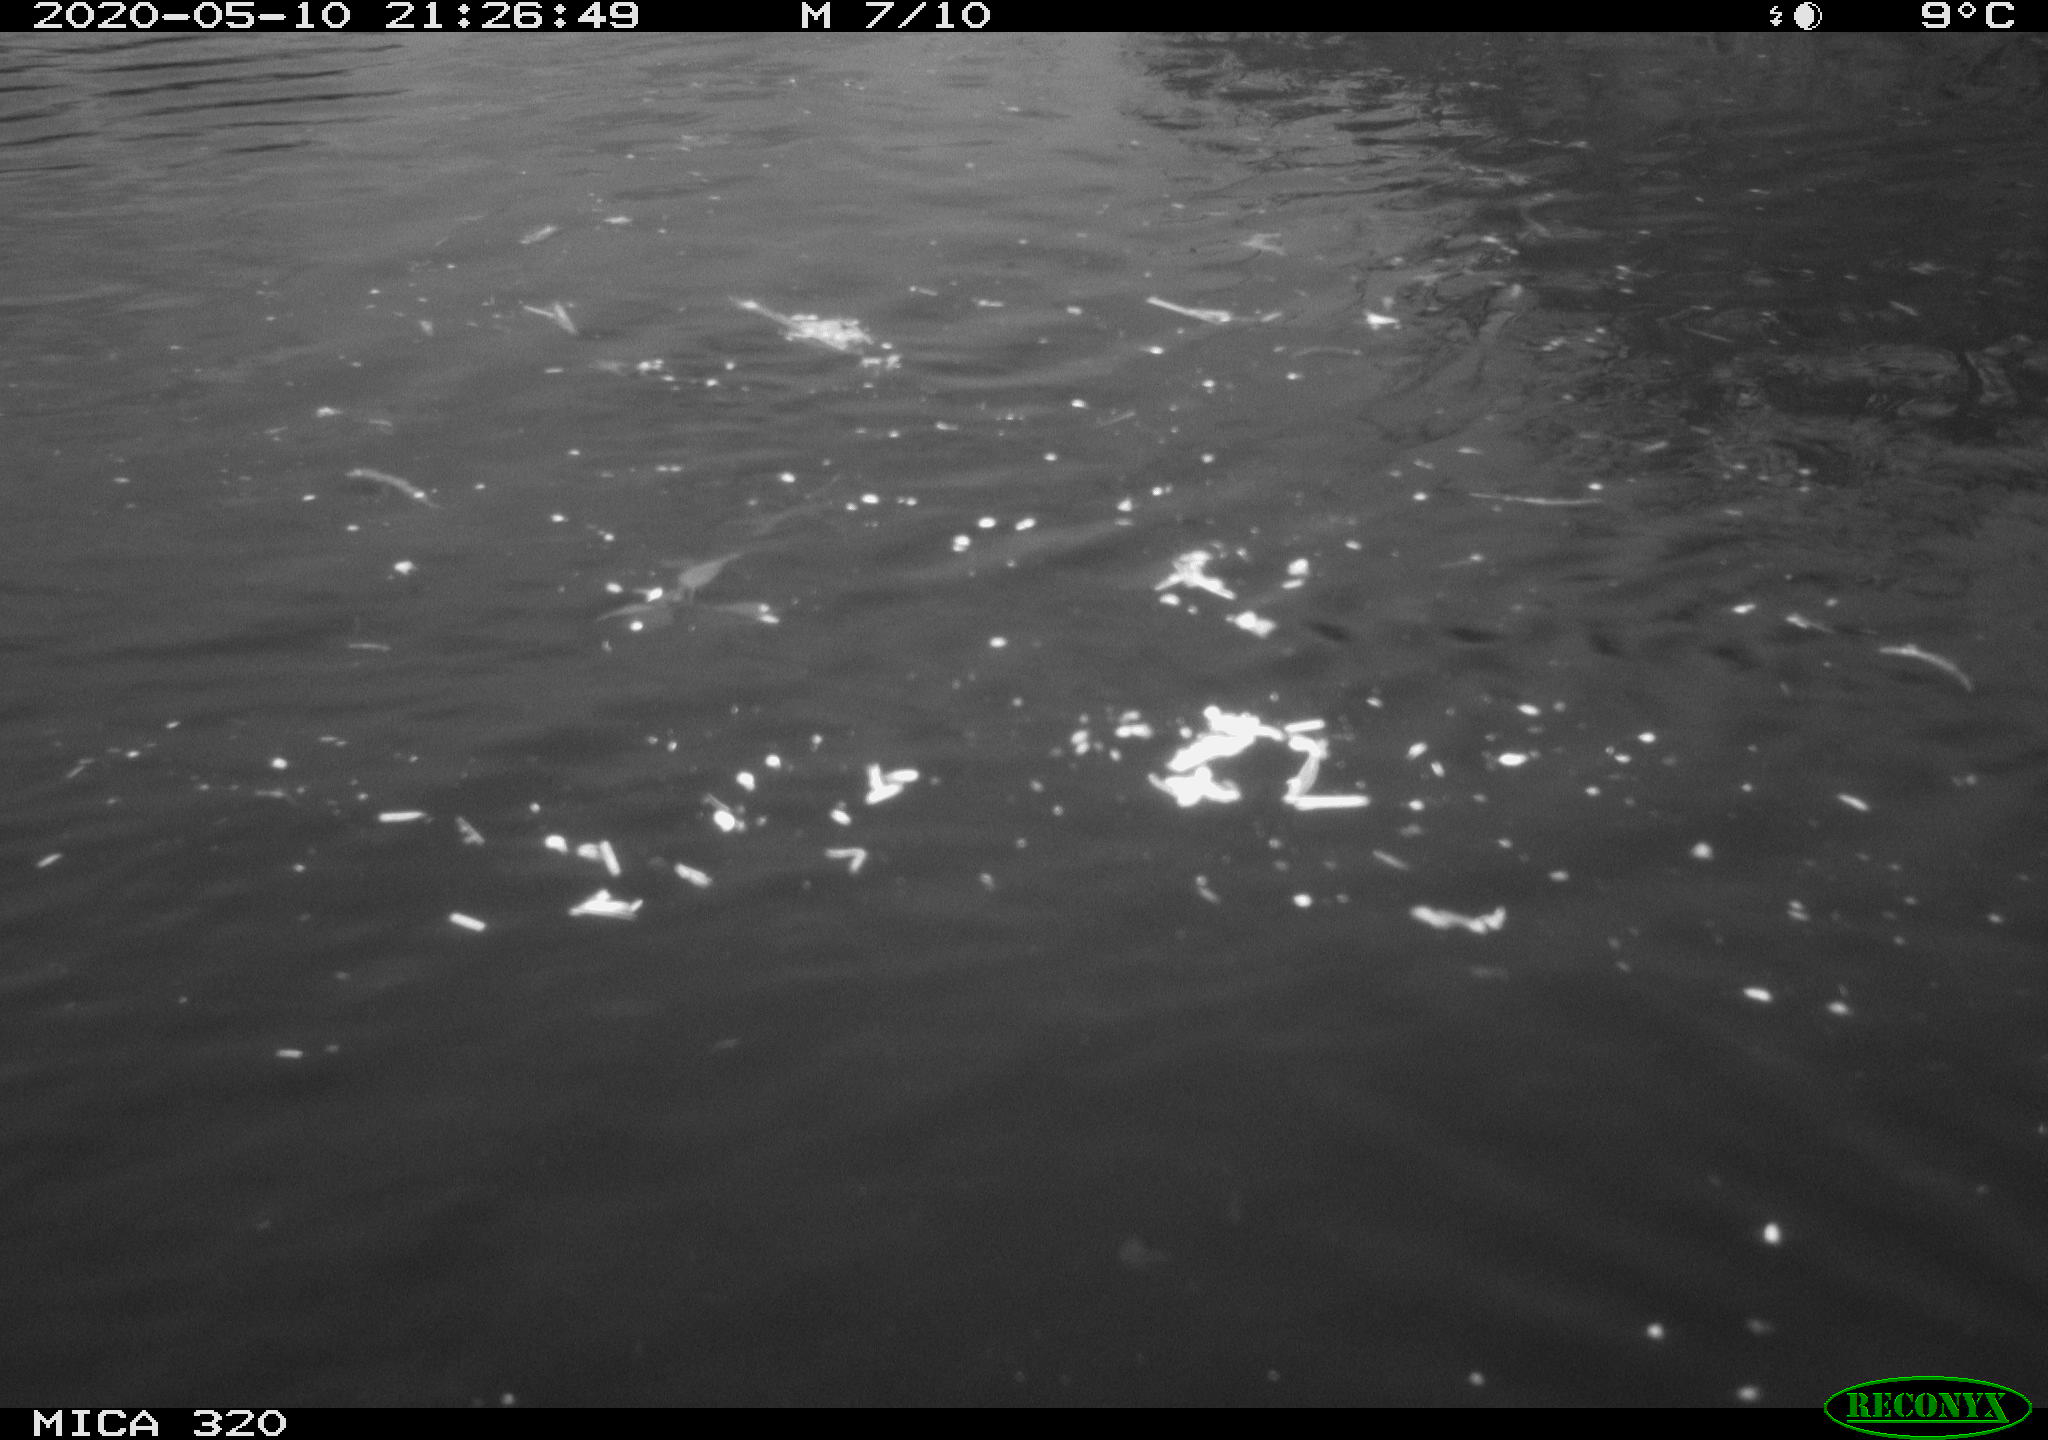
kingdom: Animalia
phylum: Chordata
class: Aves
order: Anseriformes
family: Anatidae
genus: Anas
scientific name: Anas platyrhynchos
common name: Mallard
